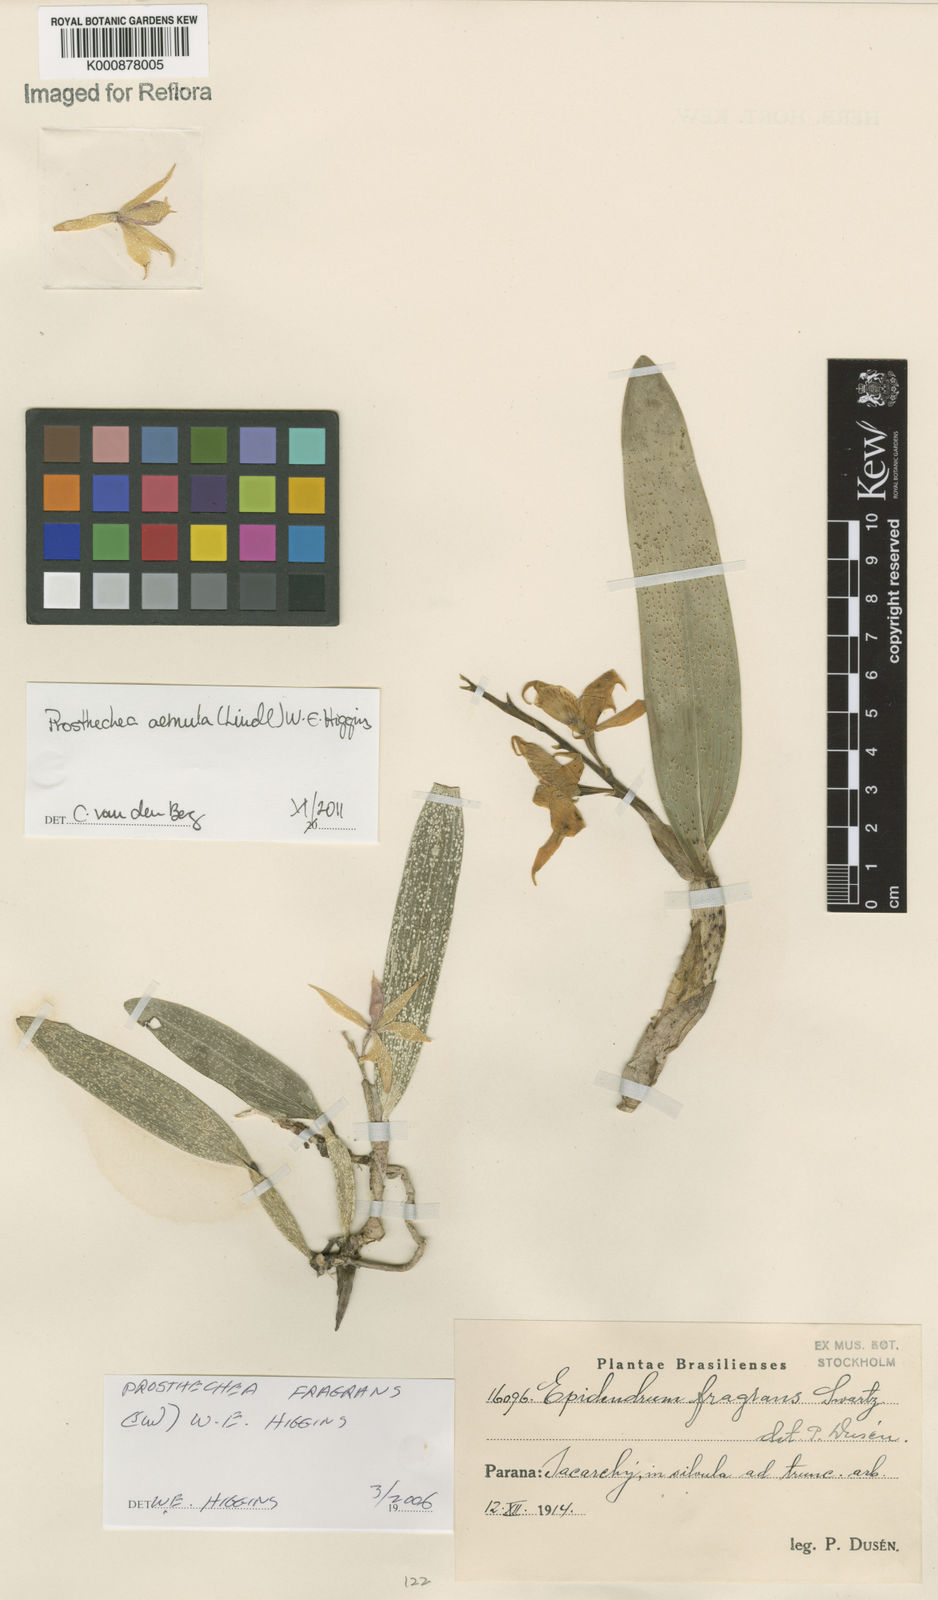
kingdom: Plantae
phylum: Tracheophyta
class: Liliopsida
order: Asparagales
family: Orchidaceae
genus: Prosthechea
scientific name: Prosthechea aemula
